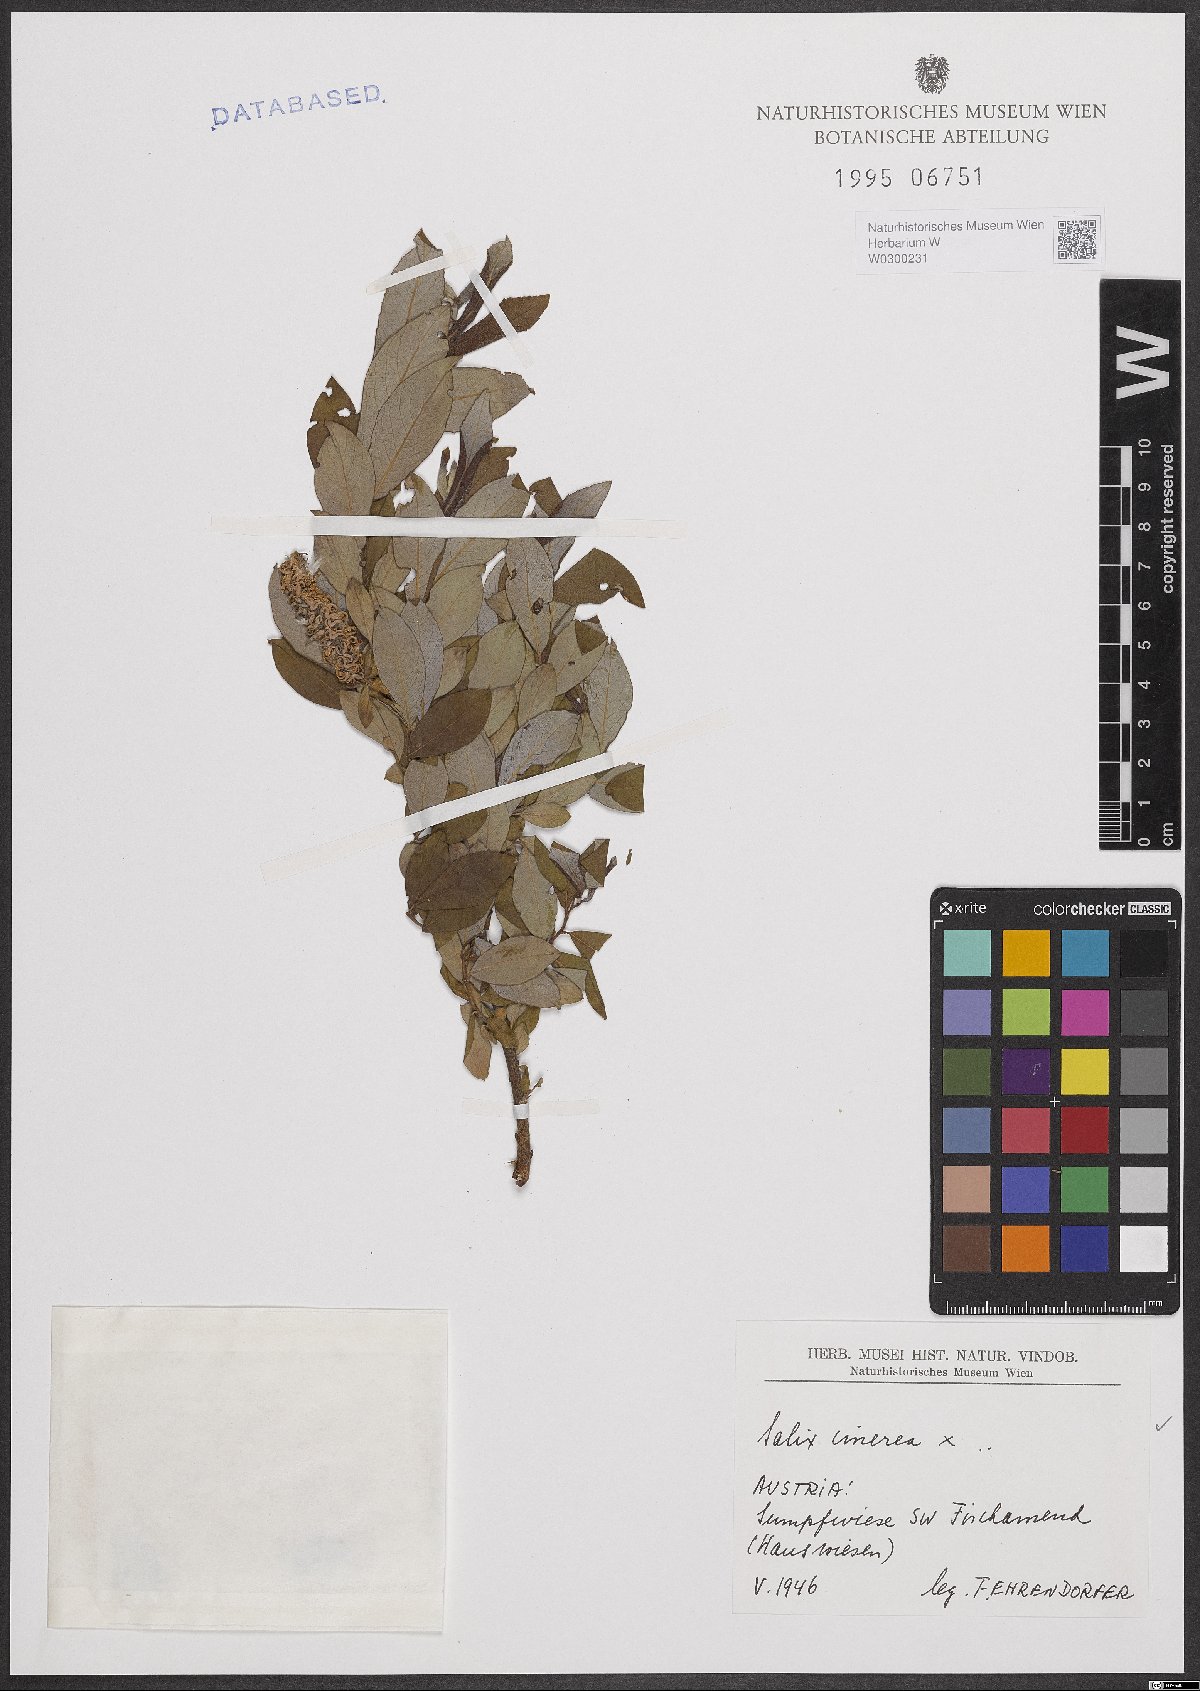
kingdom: Plantae
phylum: Tracheophyta
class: Magnoliopsida
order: Malpighiales
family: Salicaceae
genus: Salix
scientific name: Salix cinerea
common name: Common sallow
